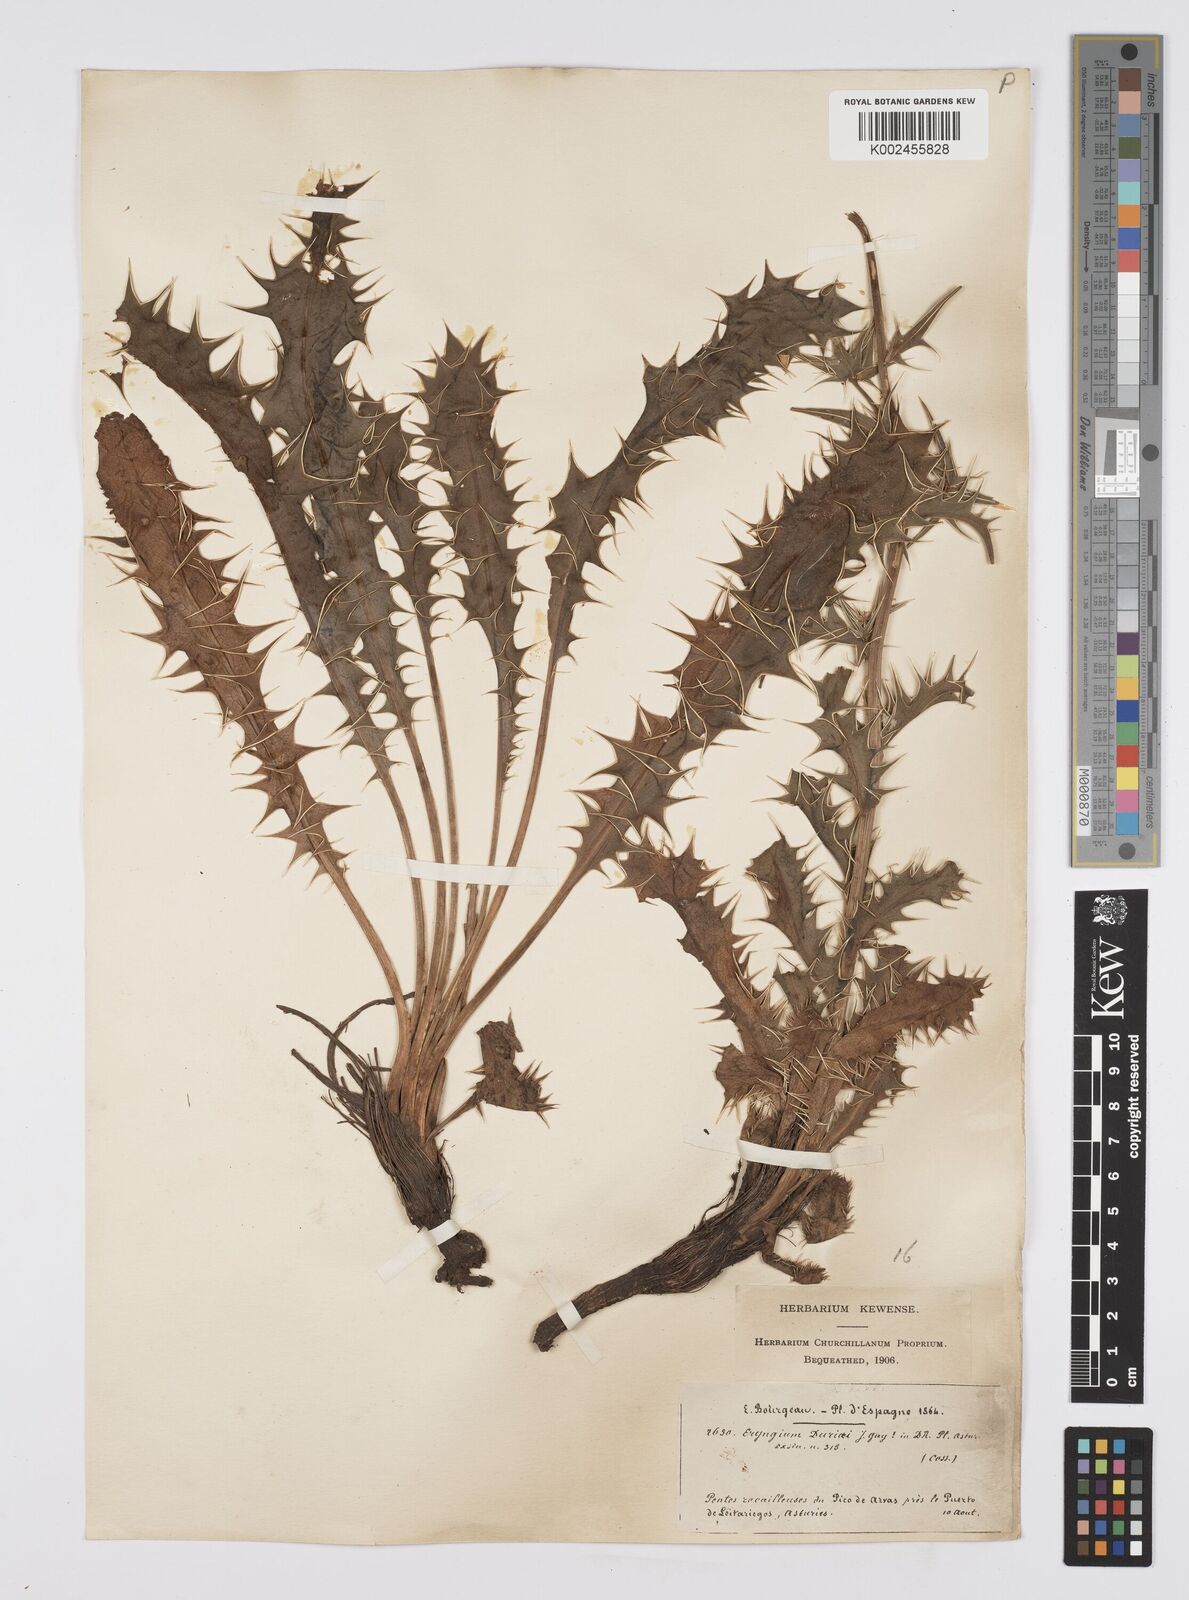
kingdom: Plantae
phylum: Tracheophyta
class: Magnoliopsida
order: Apiales
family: Apiaceae
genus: Eryngium
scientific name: Eryngium duriaei
